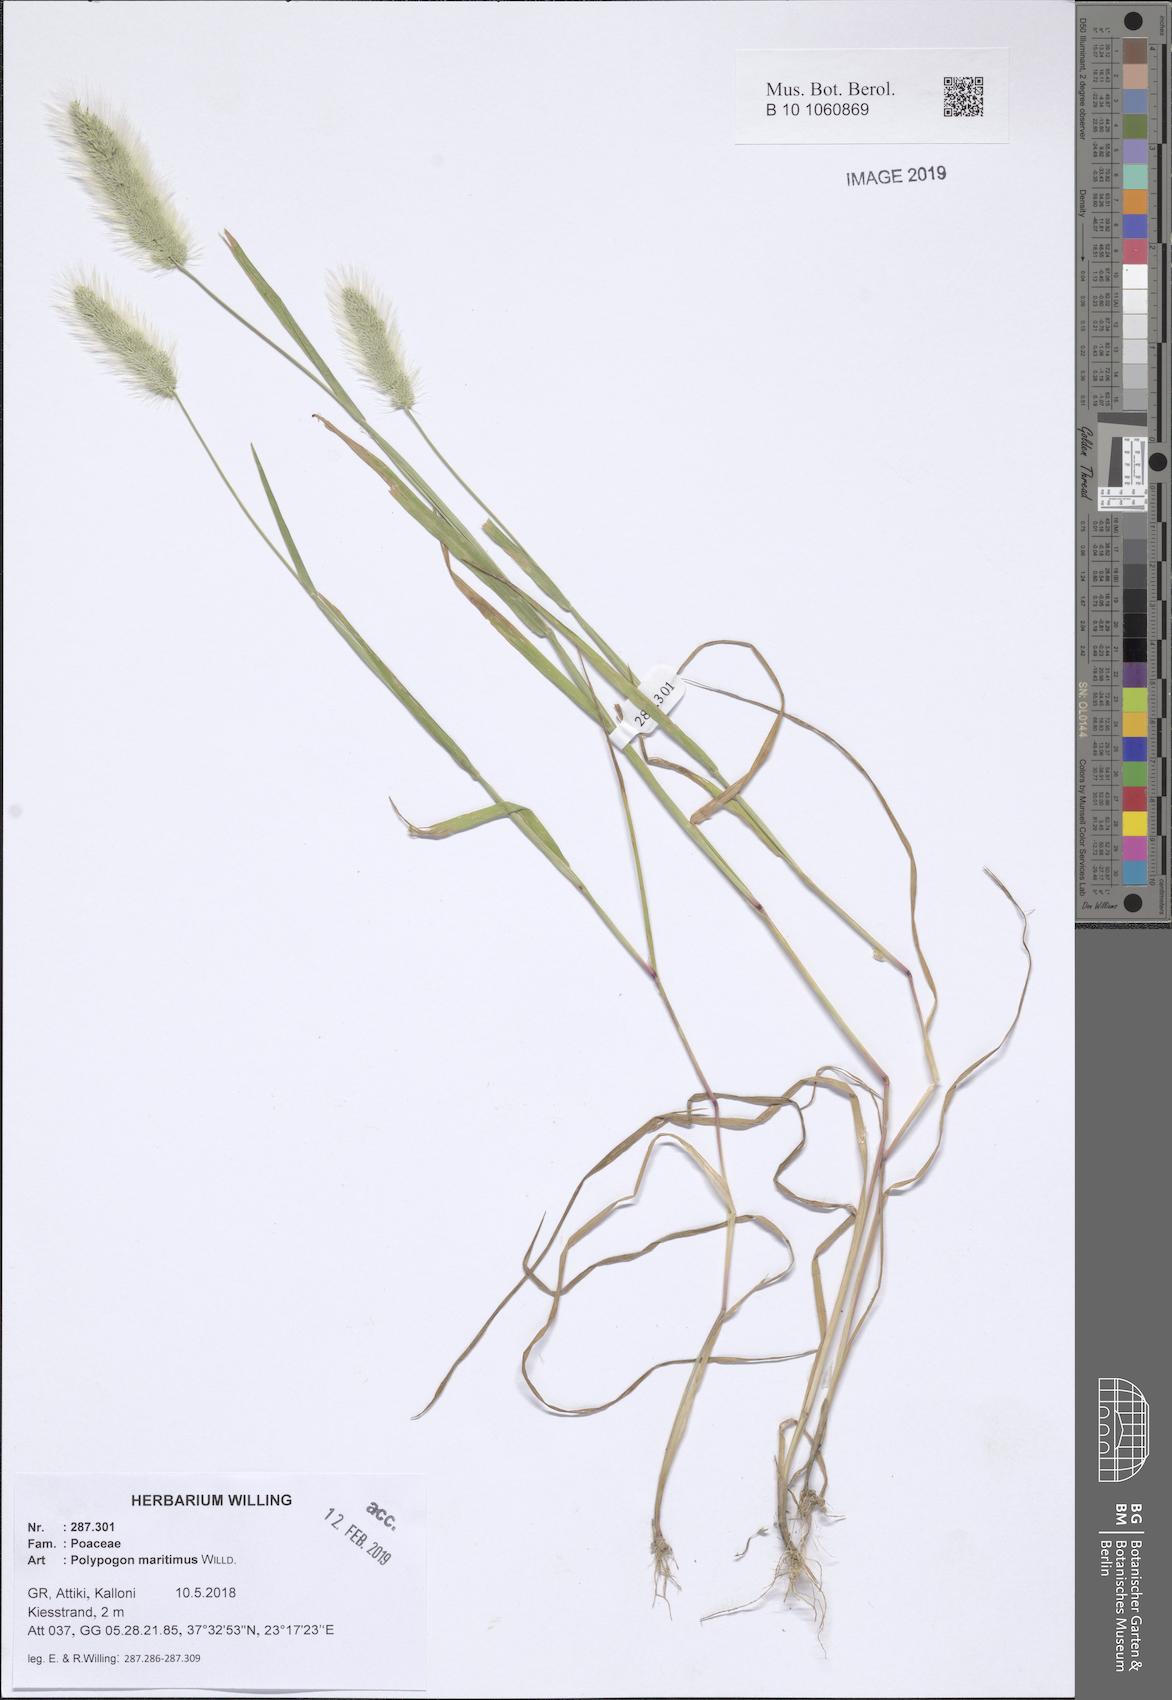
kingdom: Plantae
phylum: Tracheophyta
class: Liliopsida
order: Poales
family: Poaceae
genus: Polypogon
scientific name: Polypogon maritimus
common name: Mediterranean rabbitsfoot grass
